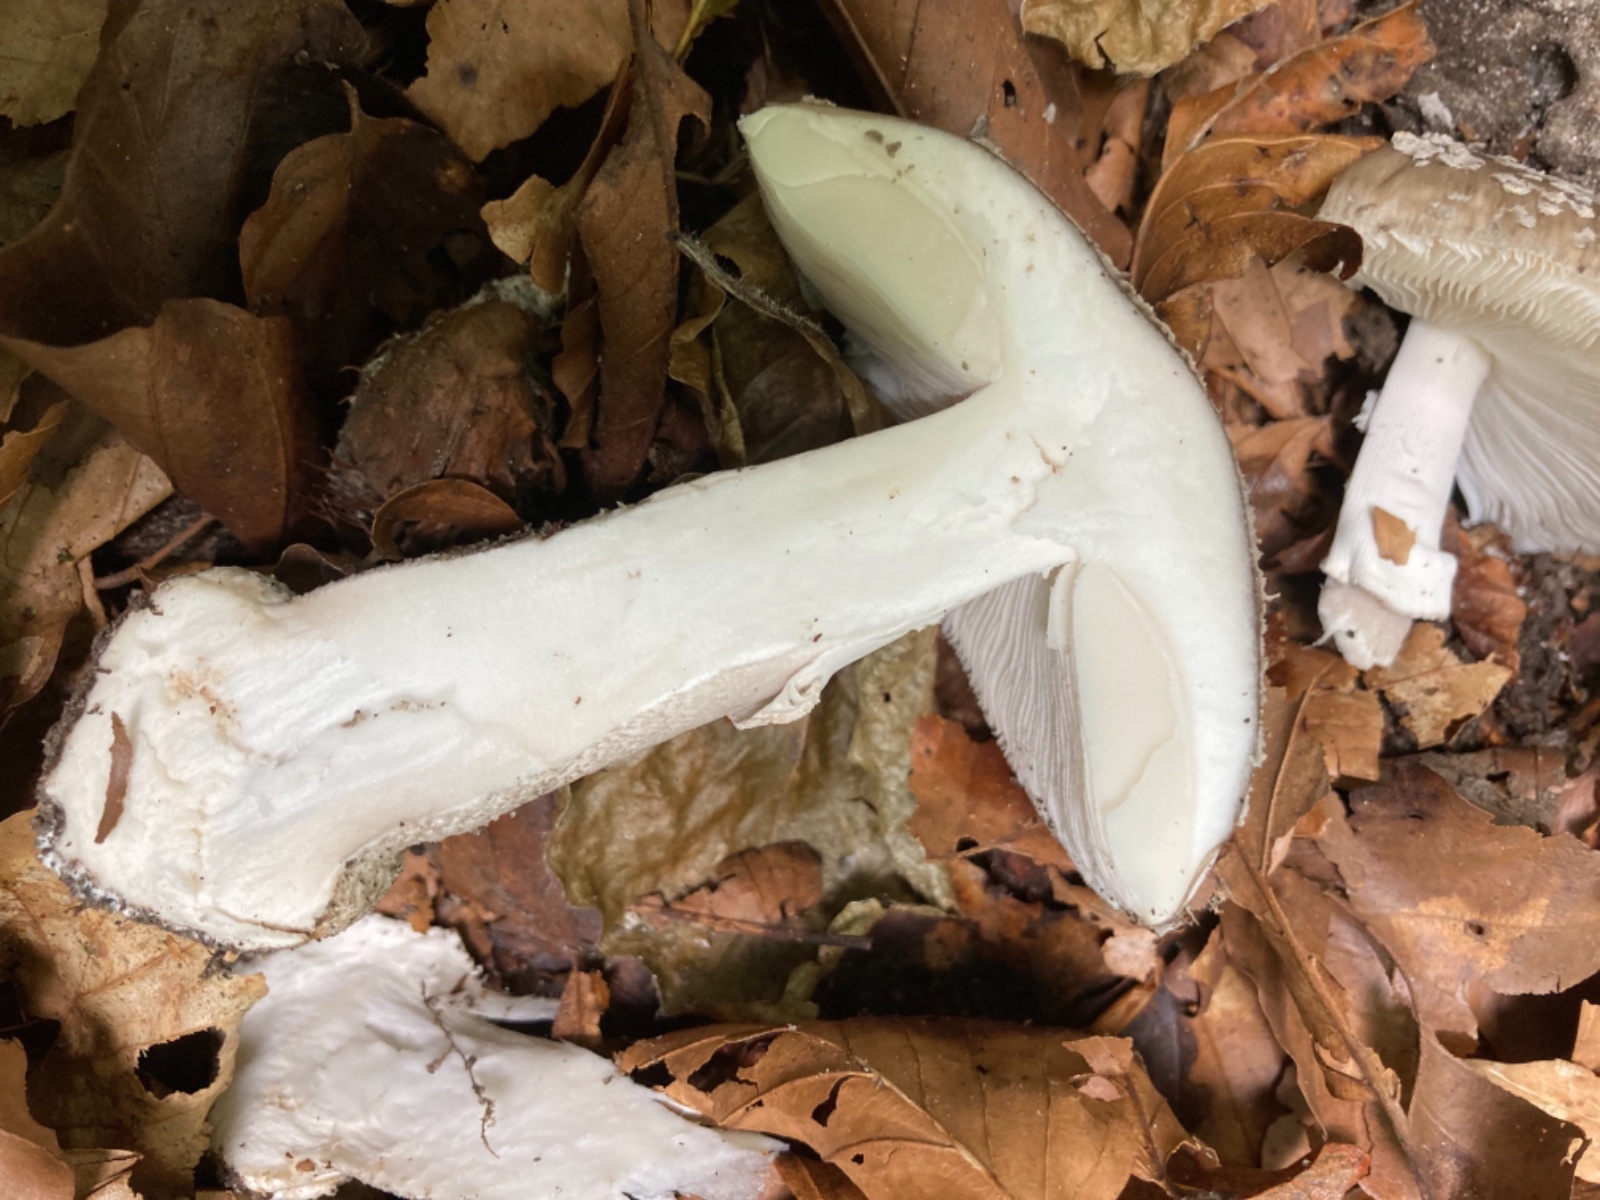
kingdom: Fungi
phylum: Basidiomycota
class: Agaricomycetes
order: Agaricales
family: Amanitaceae
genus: Amanita
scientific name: Amanita
